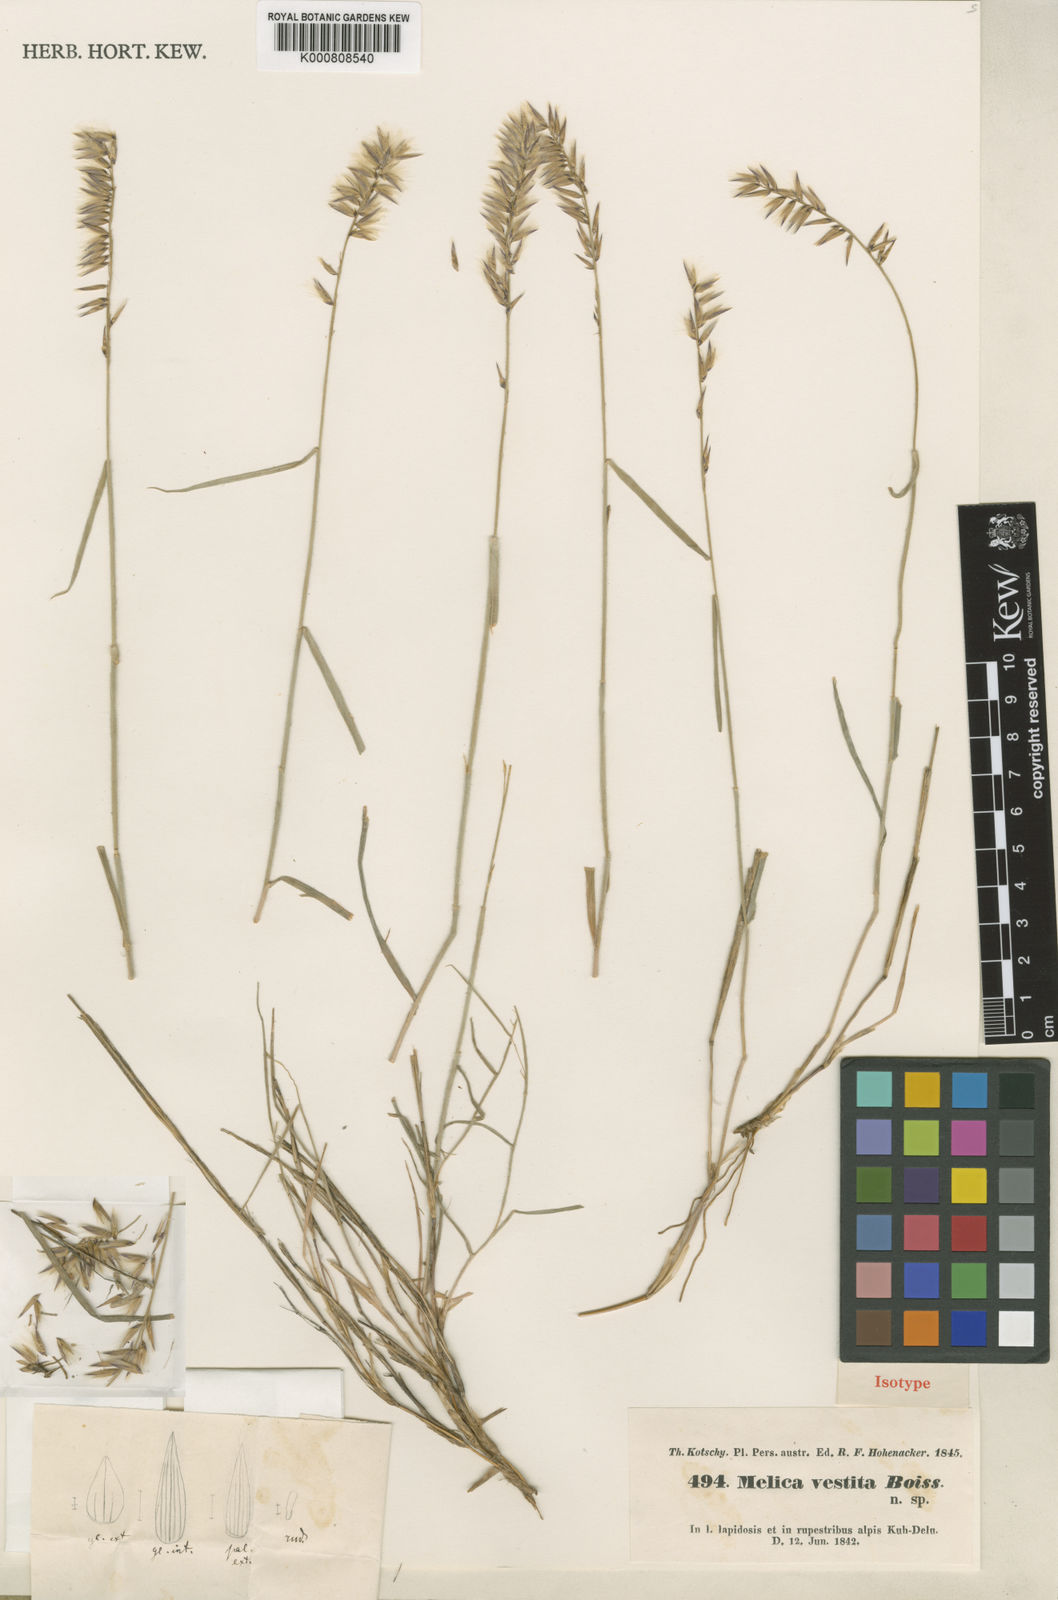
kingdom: Plantae
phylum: Tracheophyta
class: Liliopsida
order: Poales
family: Poaceae
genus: Melica
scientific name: Melica persica
